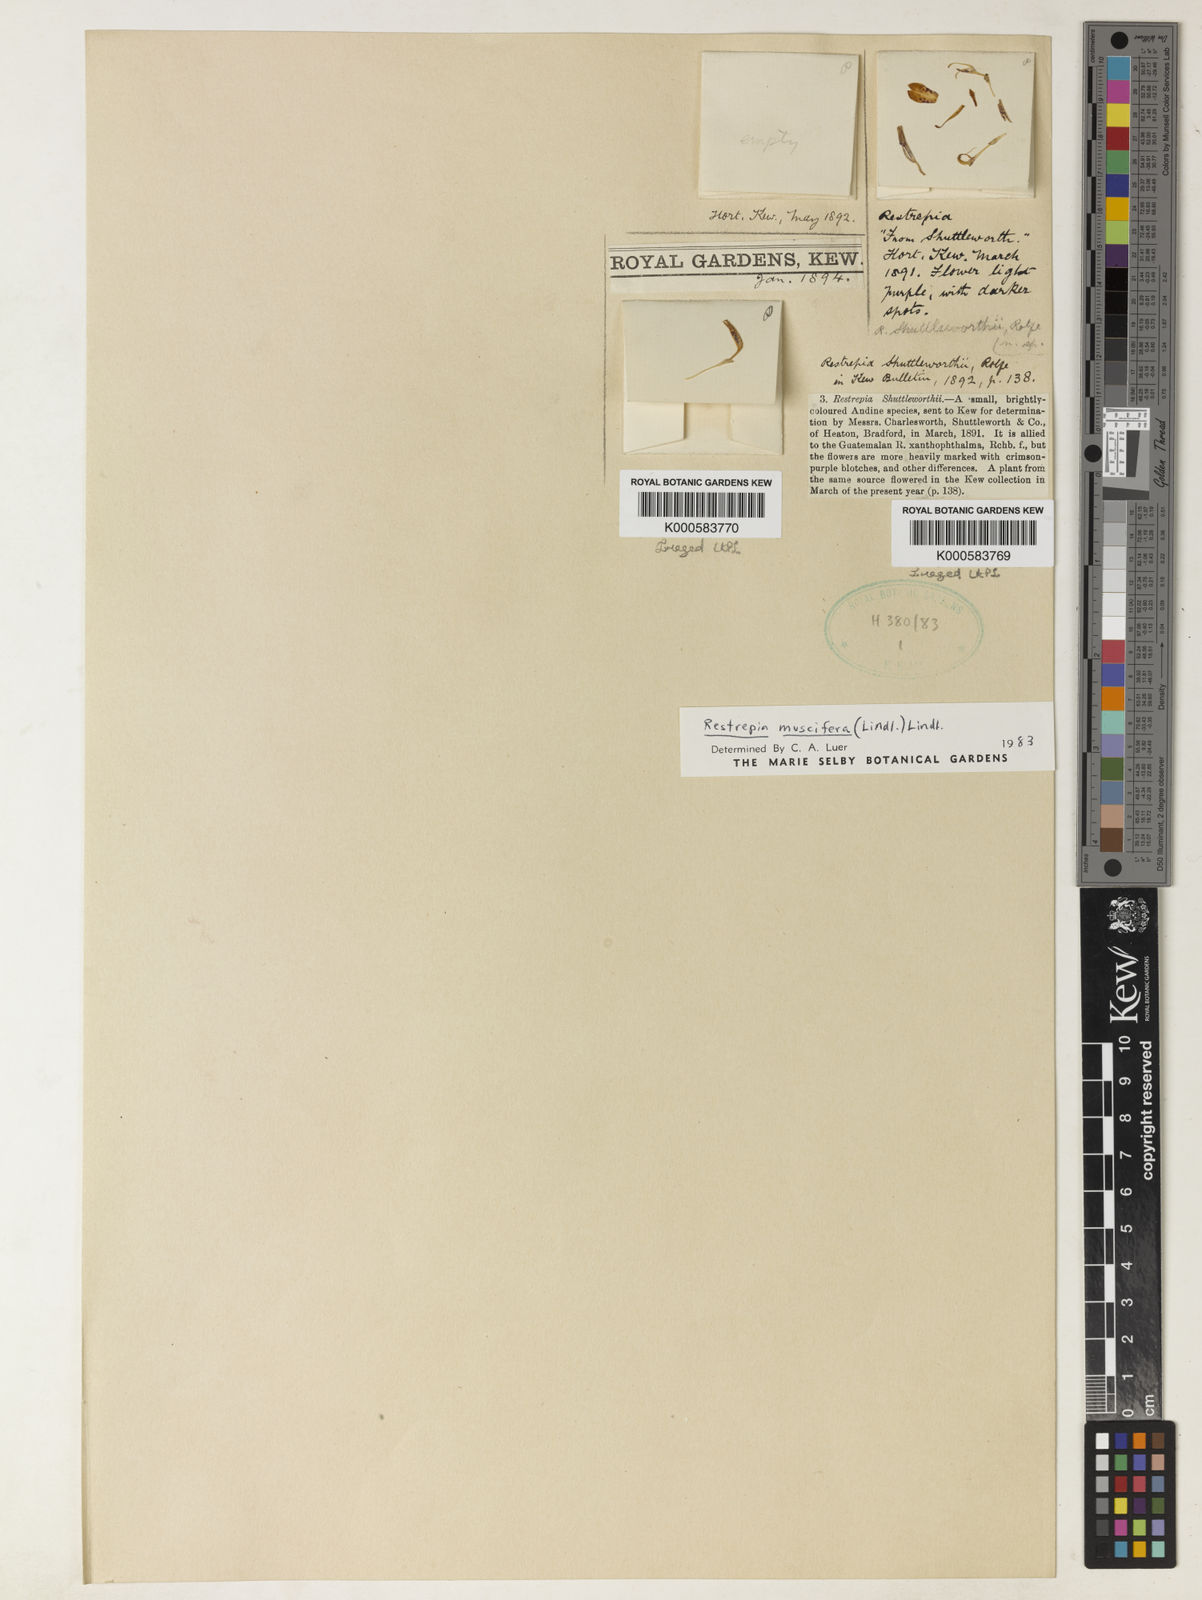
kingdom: Plantae
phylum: Tracheophyta
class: Liliopsida
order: Asparagales
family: Orchidaceae
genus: Restrepia
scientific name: Restrepia muscifera
